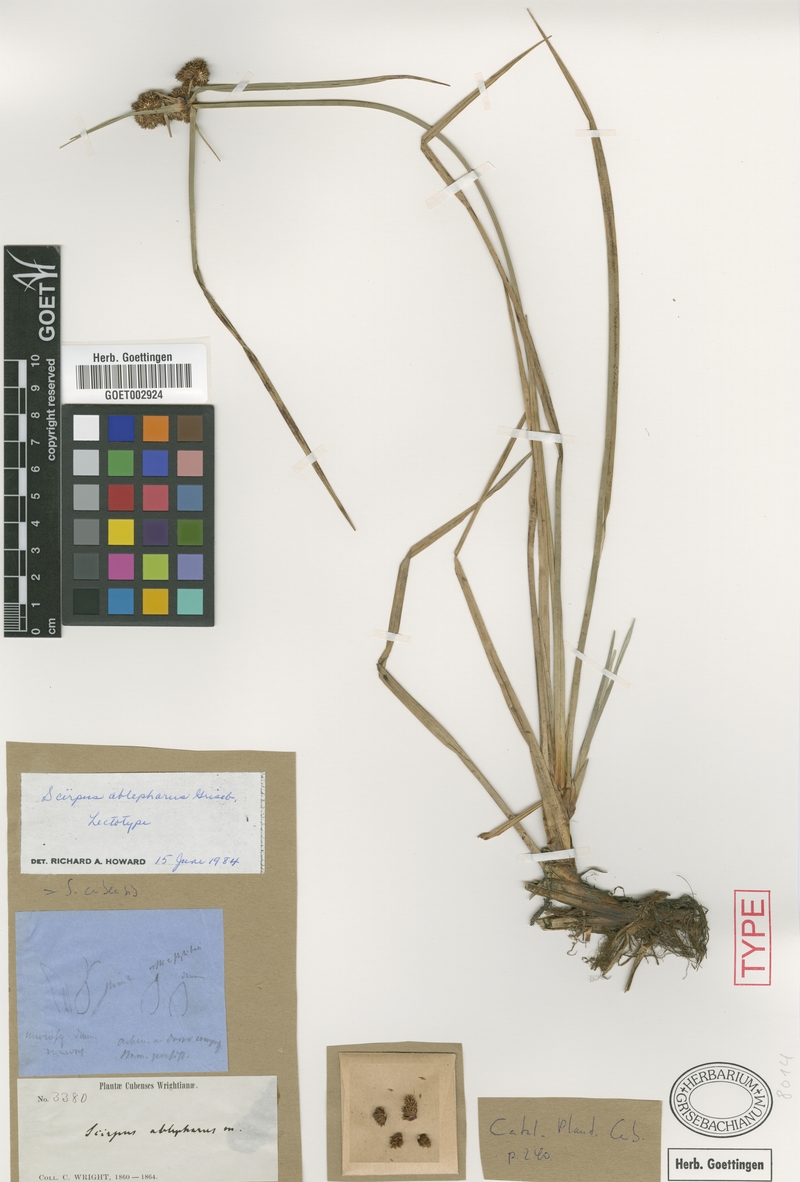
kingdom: Plantae
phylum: Tracheophyta
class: Liliopsida
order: Poales
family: Cyperaceae
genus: Cyperus
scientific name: Cyperus blepharoleptos
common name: Cuban bulrush
